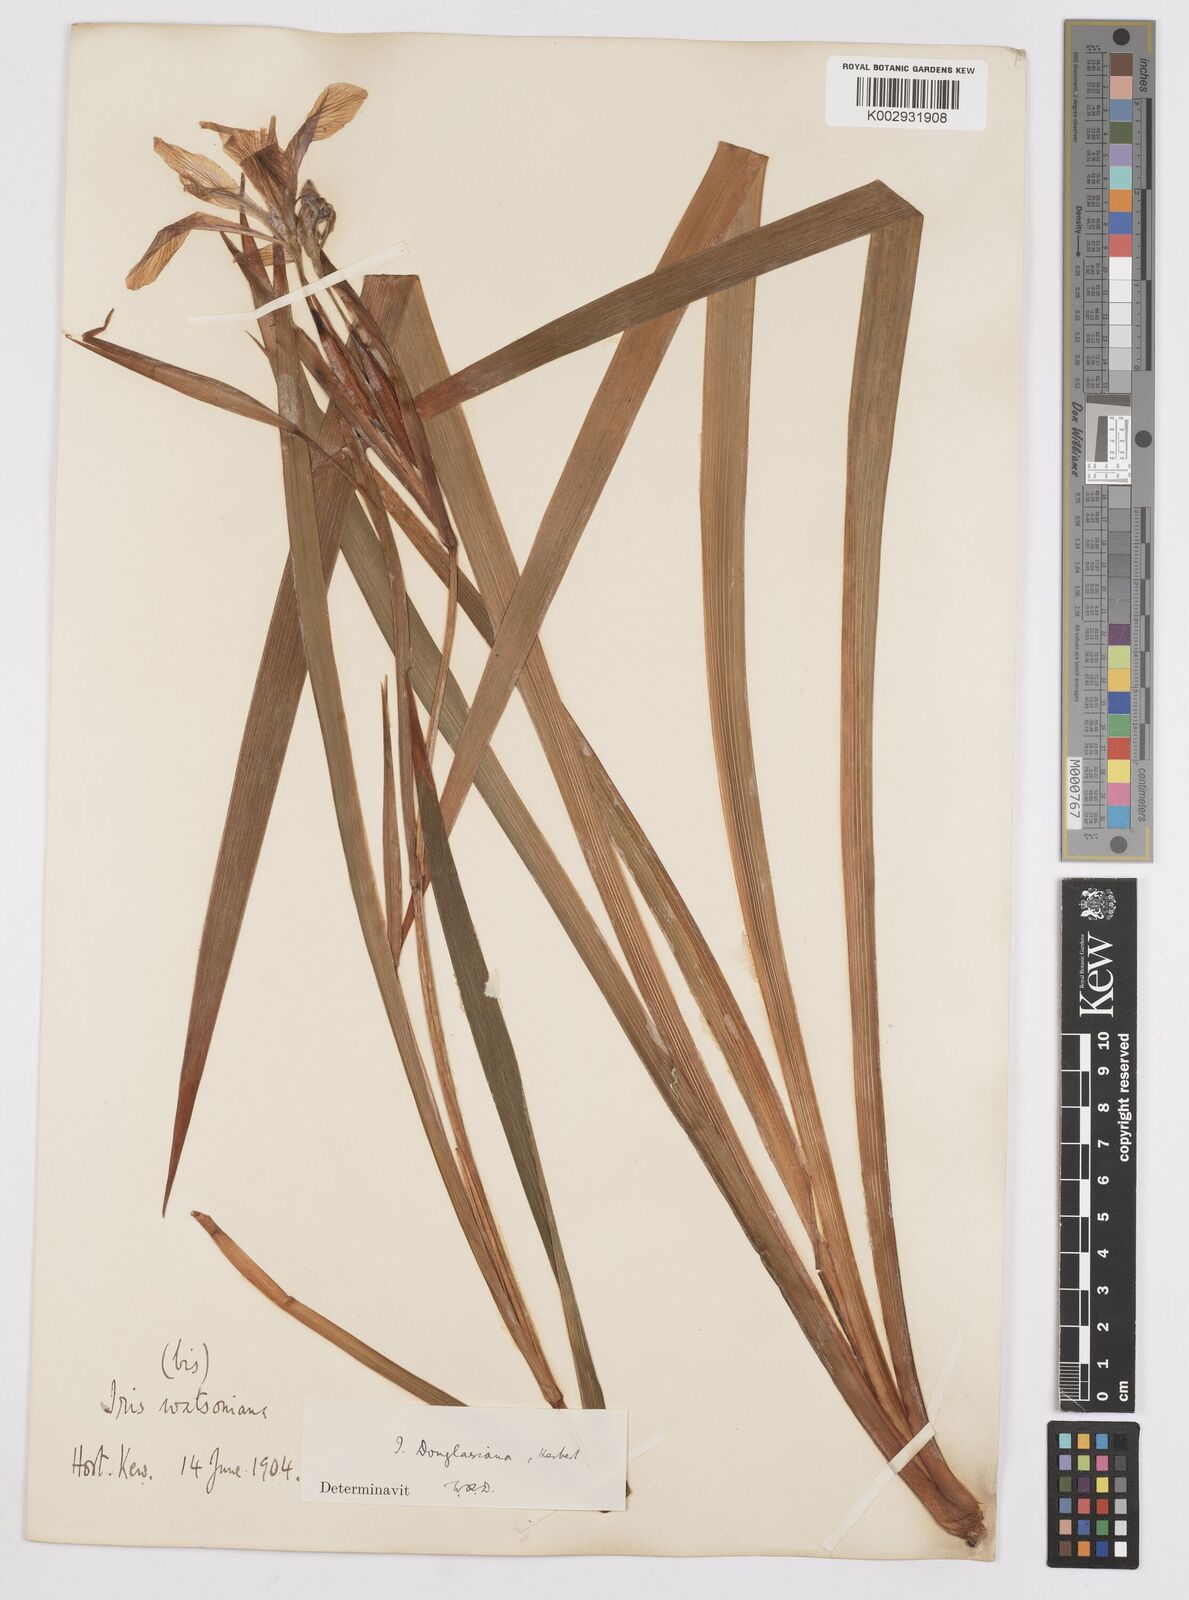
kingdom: Plantae
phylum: Tracheophyta
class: Liliopsida
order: Asparagales
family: Iridaceae
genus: Iris
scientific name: Iris douglasiana
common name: Marin iris
